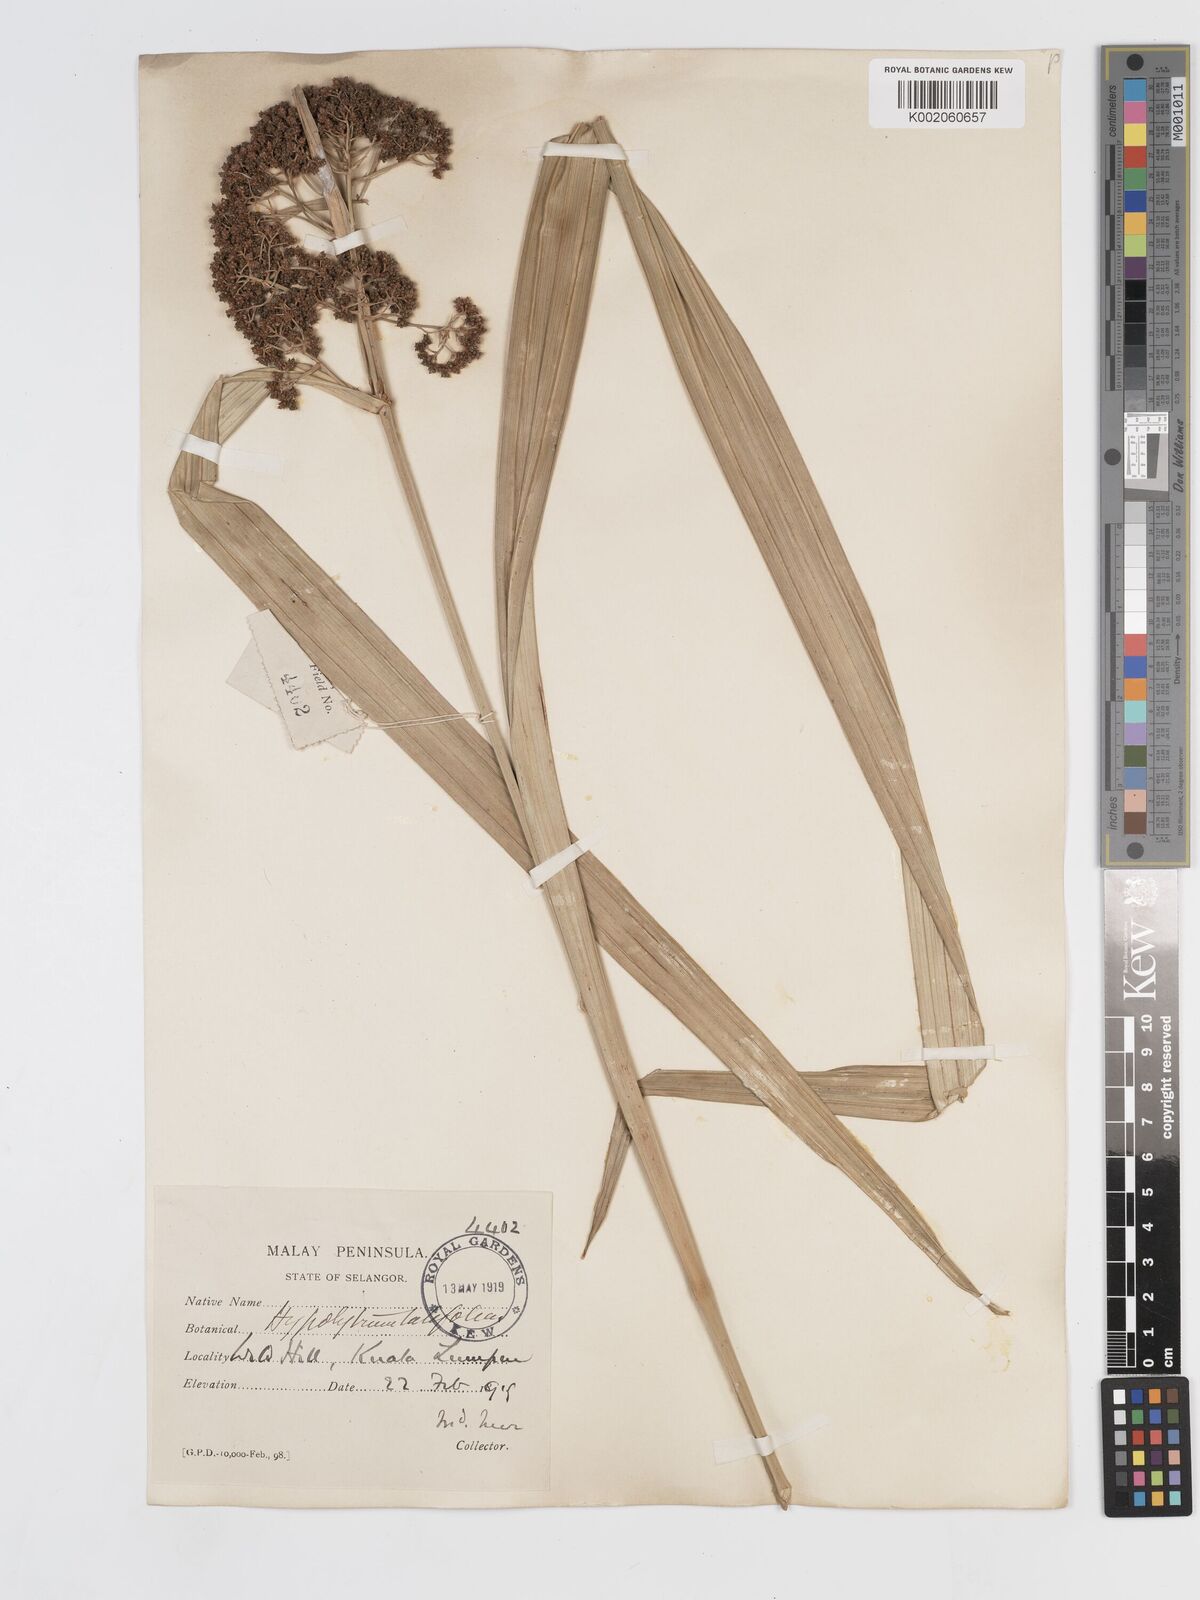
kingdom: Plantae
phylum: Tracheophyta
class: Liliopsida
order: Poales
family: Cyperaceae
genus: Hypolytrum
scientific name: Hypolytrum nemorum
